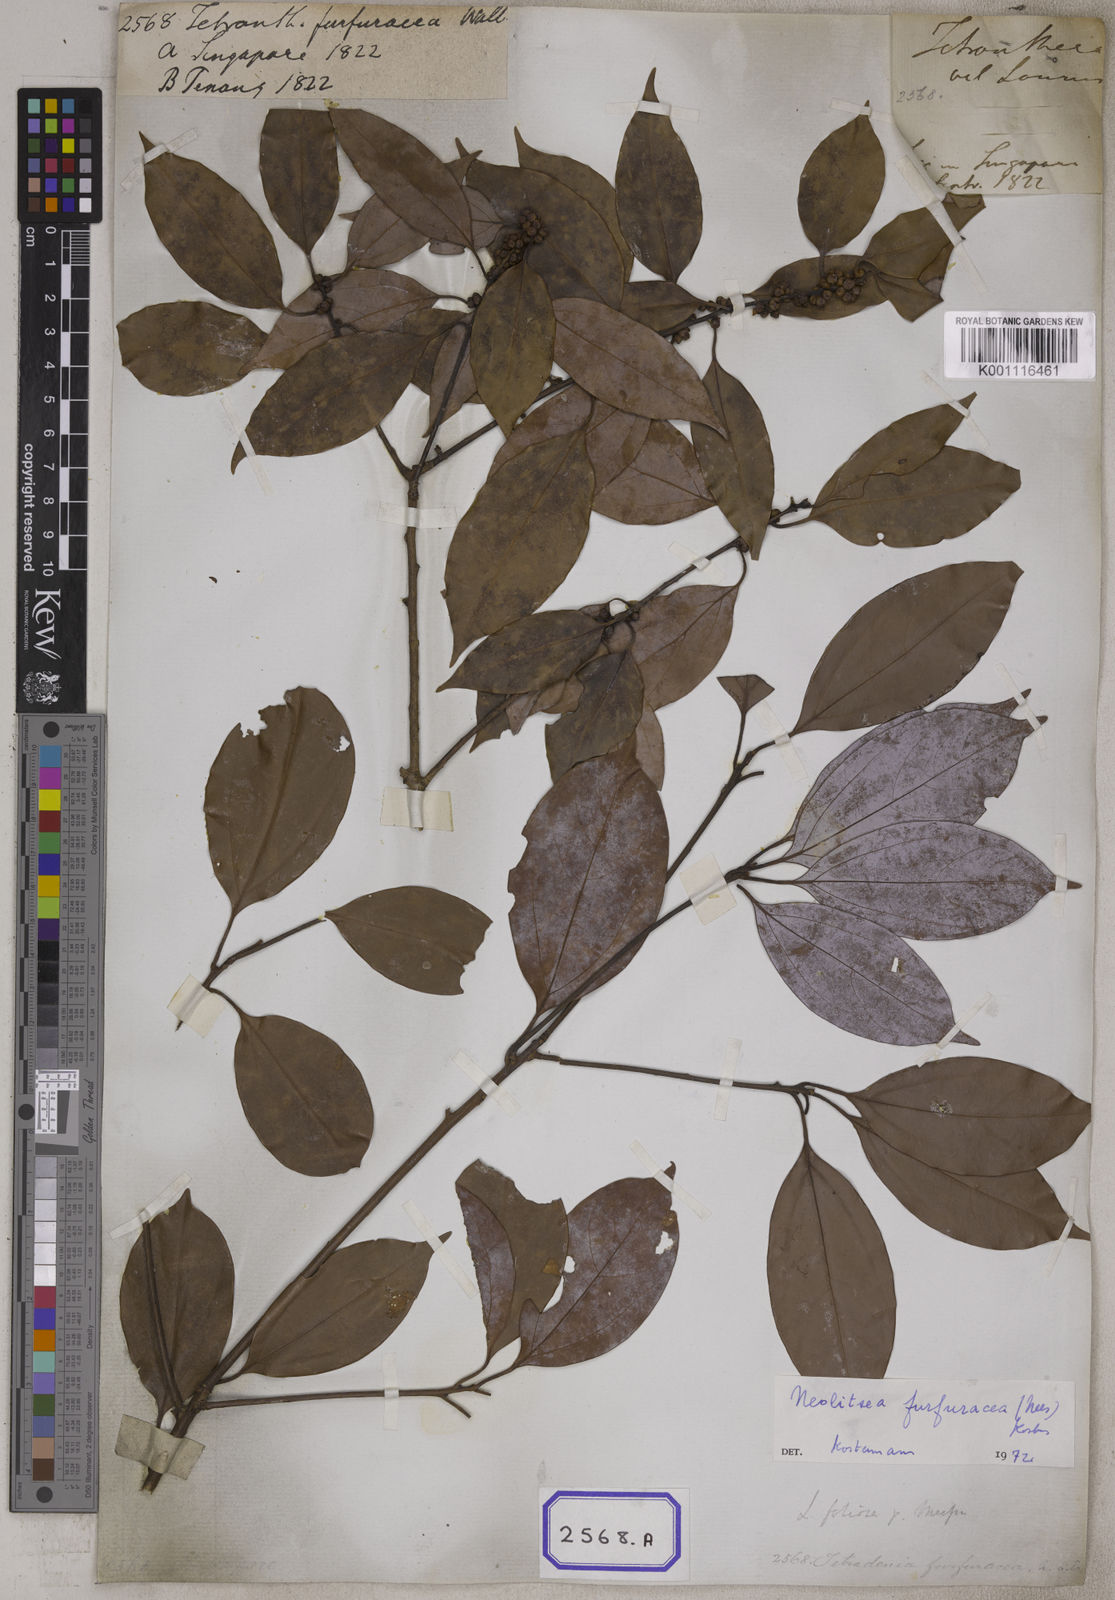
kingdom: Plantae
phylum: Tracheophyta
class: Magnoliopsida
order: Laurales
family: Lauraceae
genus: Neolitsea
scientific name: Neolitsea umbrosa
